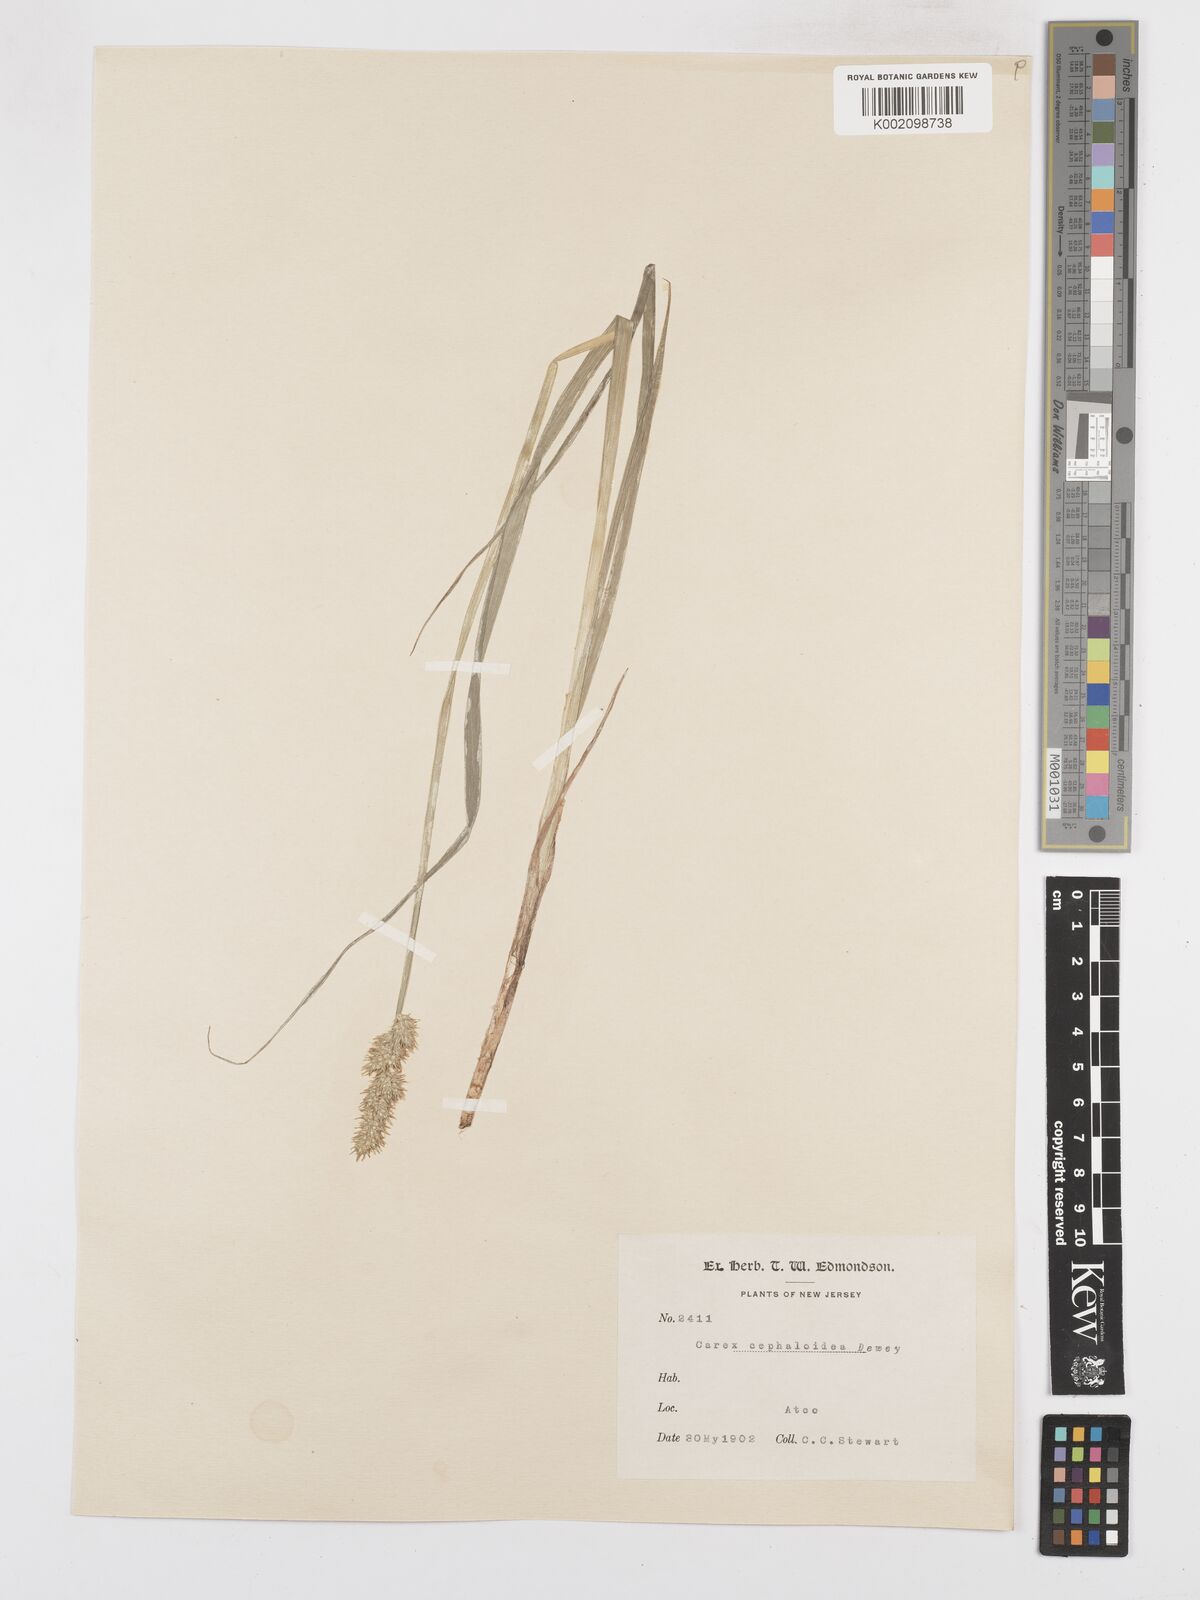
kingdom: Plantae
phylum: Tracheophyta
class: Liliopsida
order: Poales
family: Cyperaceae
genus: Carex
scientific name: Carex cephaloidea
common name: Thin-leaved sedge
